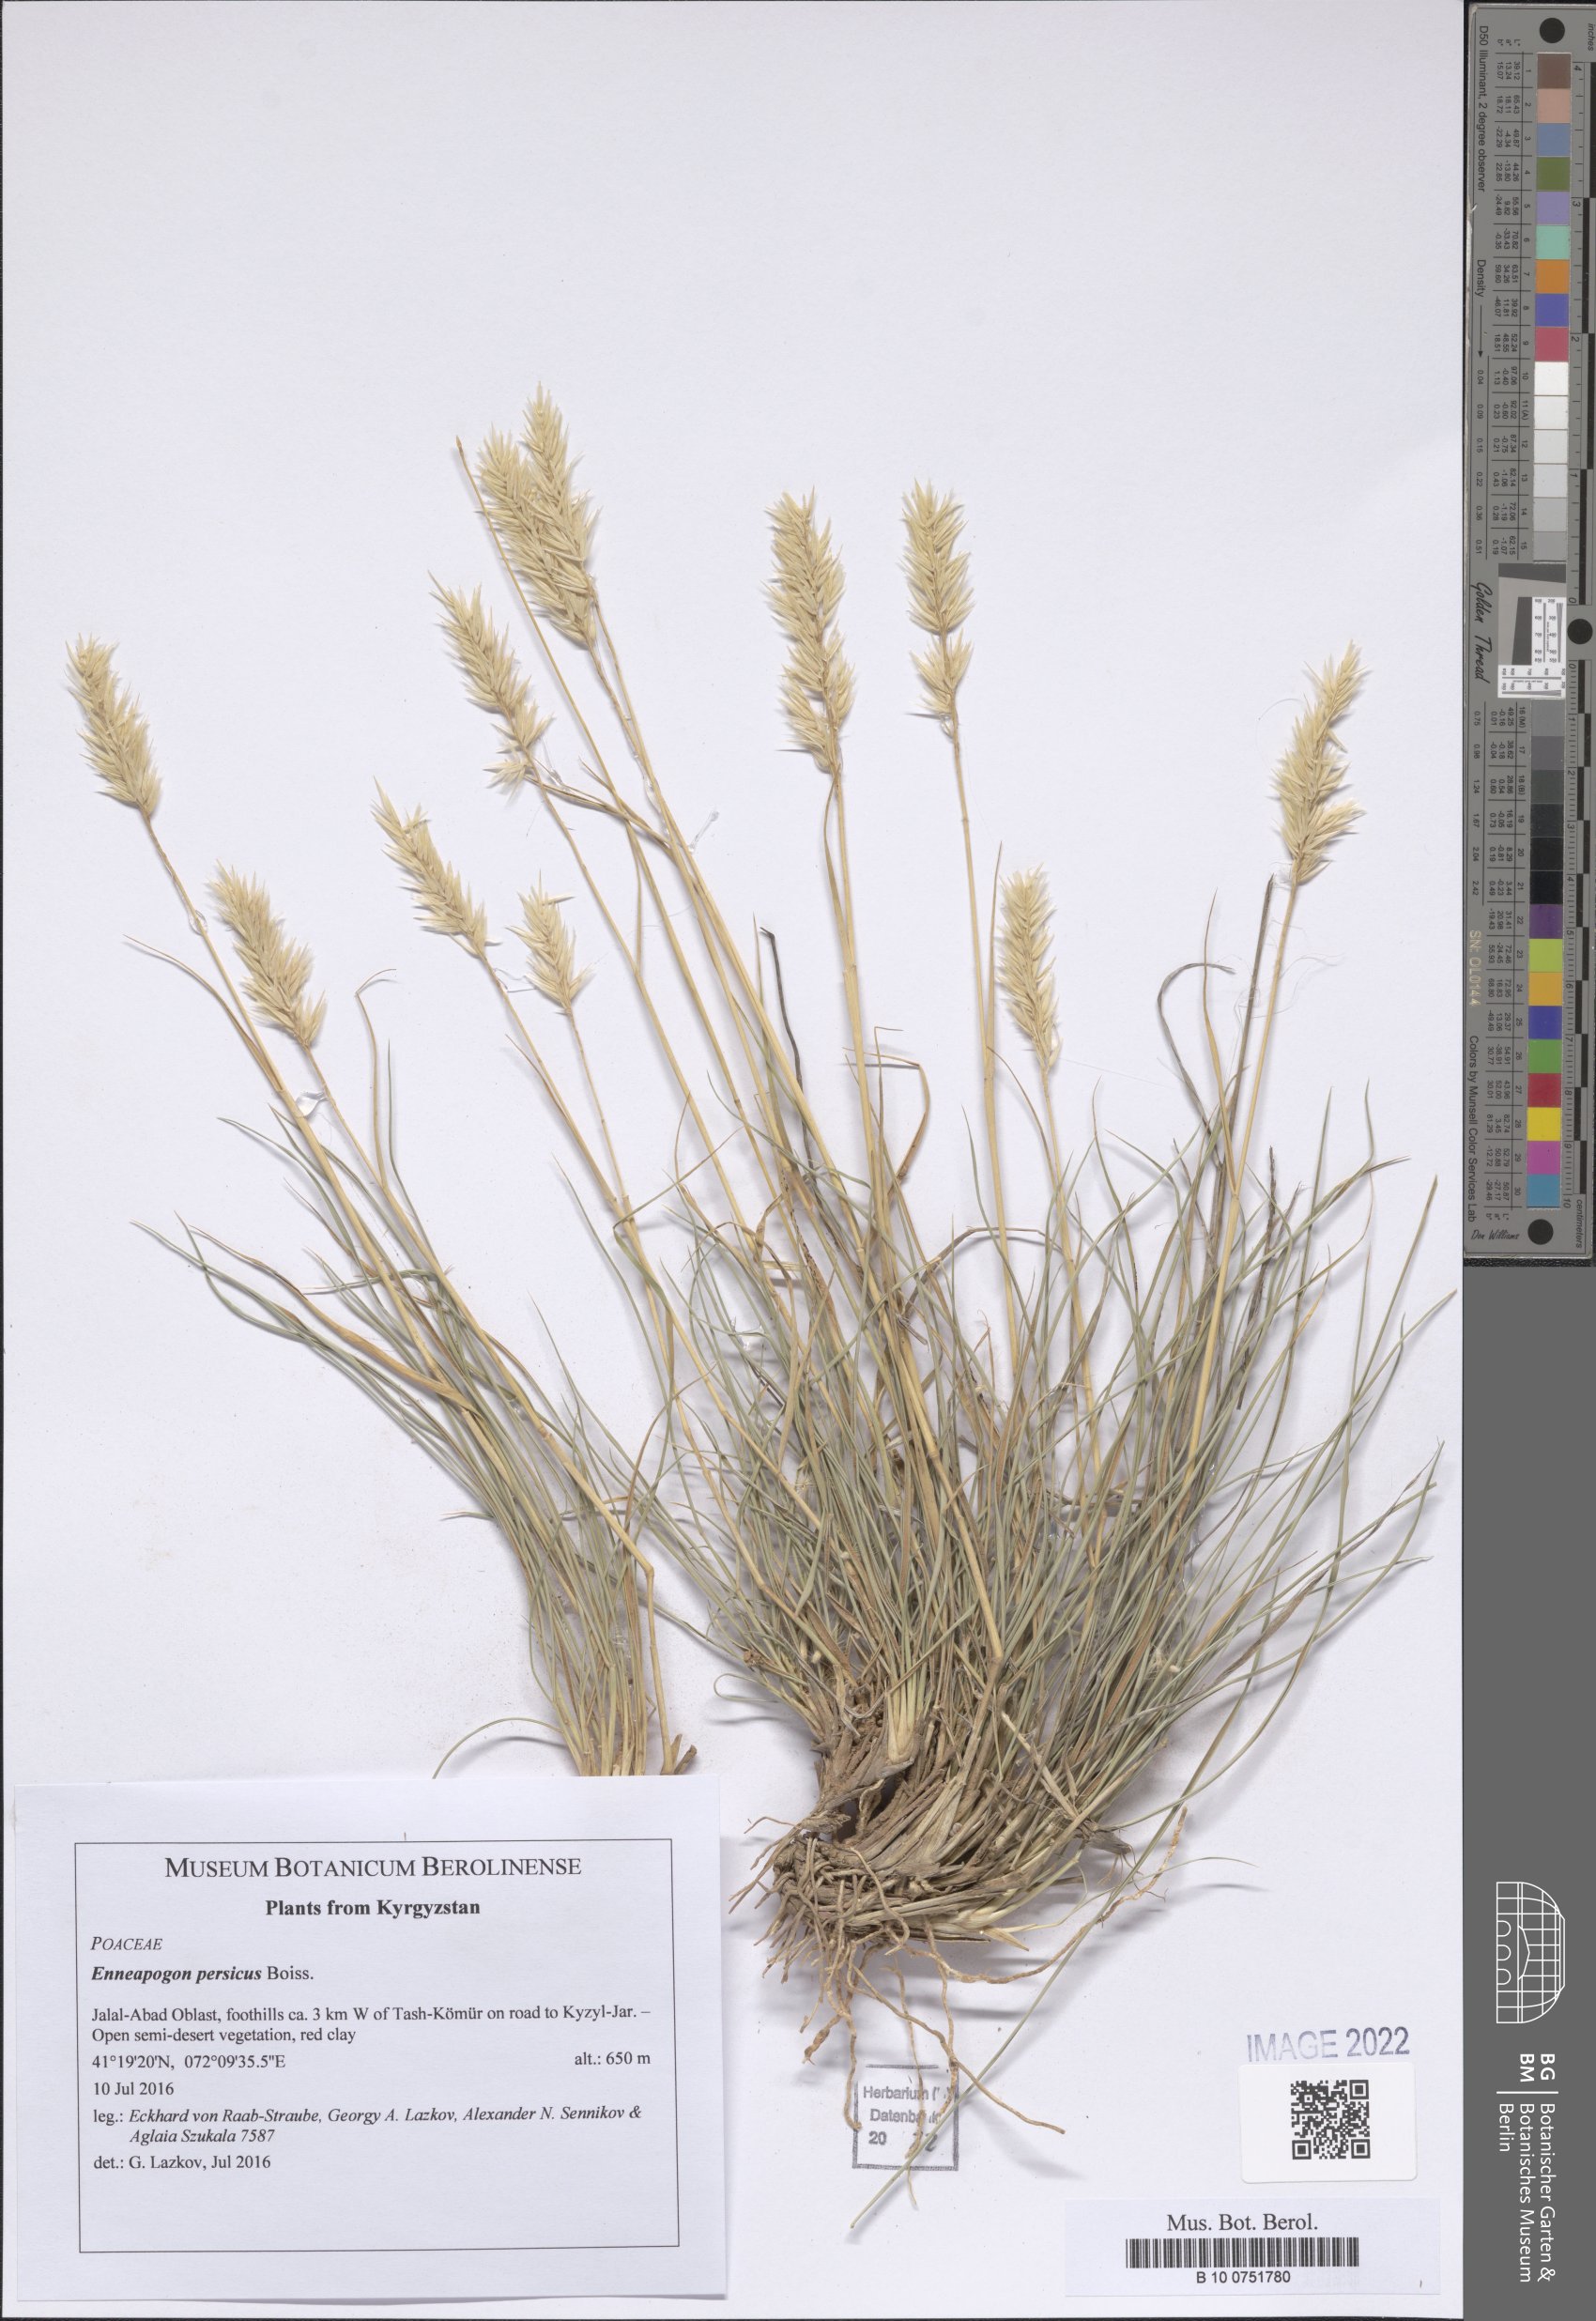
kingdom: Plantae
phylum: Tracheophyta
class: Liliopsida
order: Poales
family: Poaceae
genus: Enneapogon
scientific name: Enneapogon persicus
